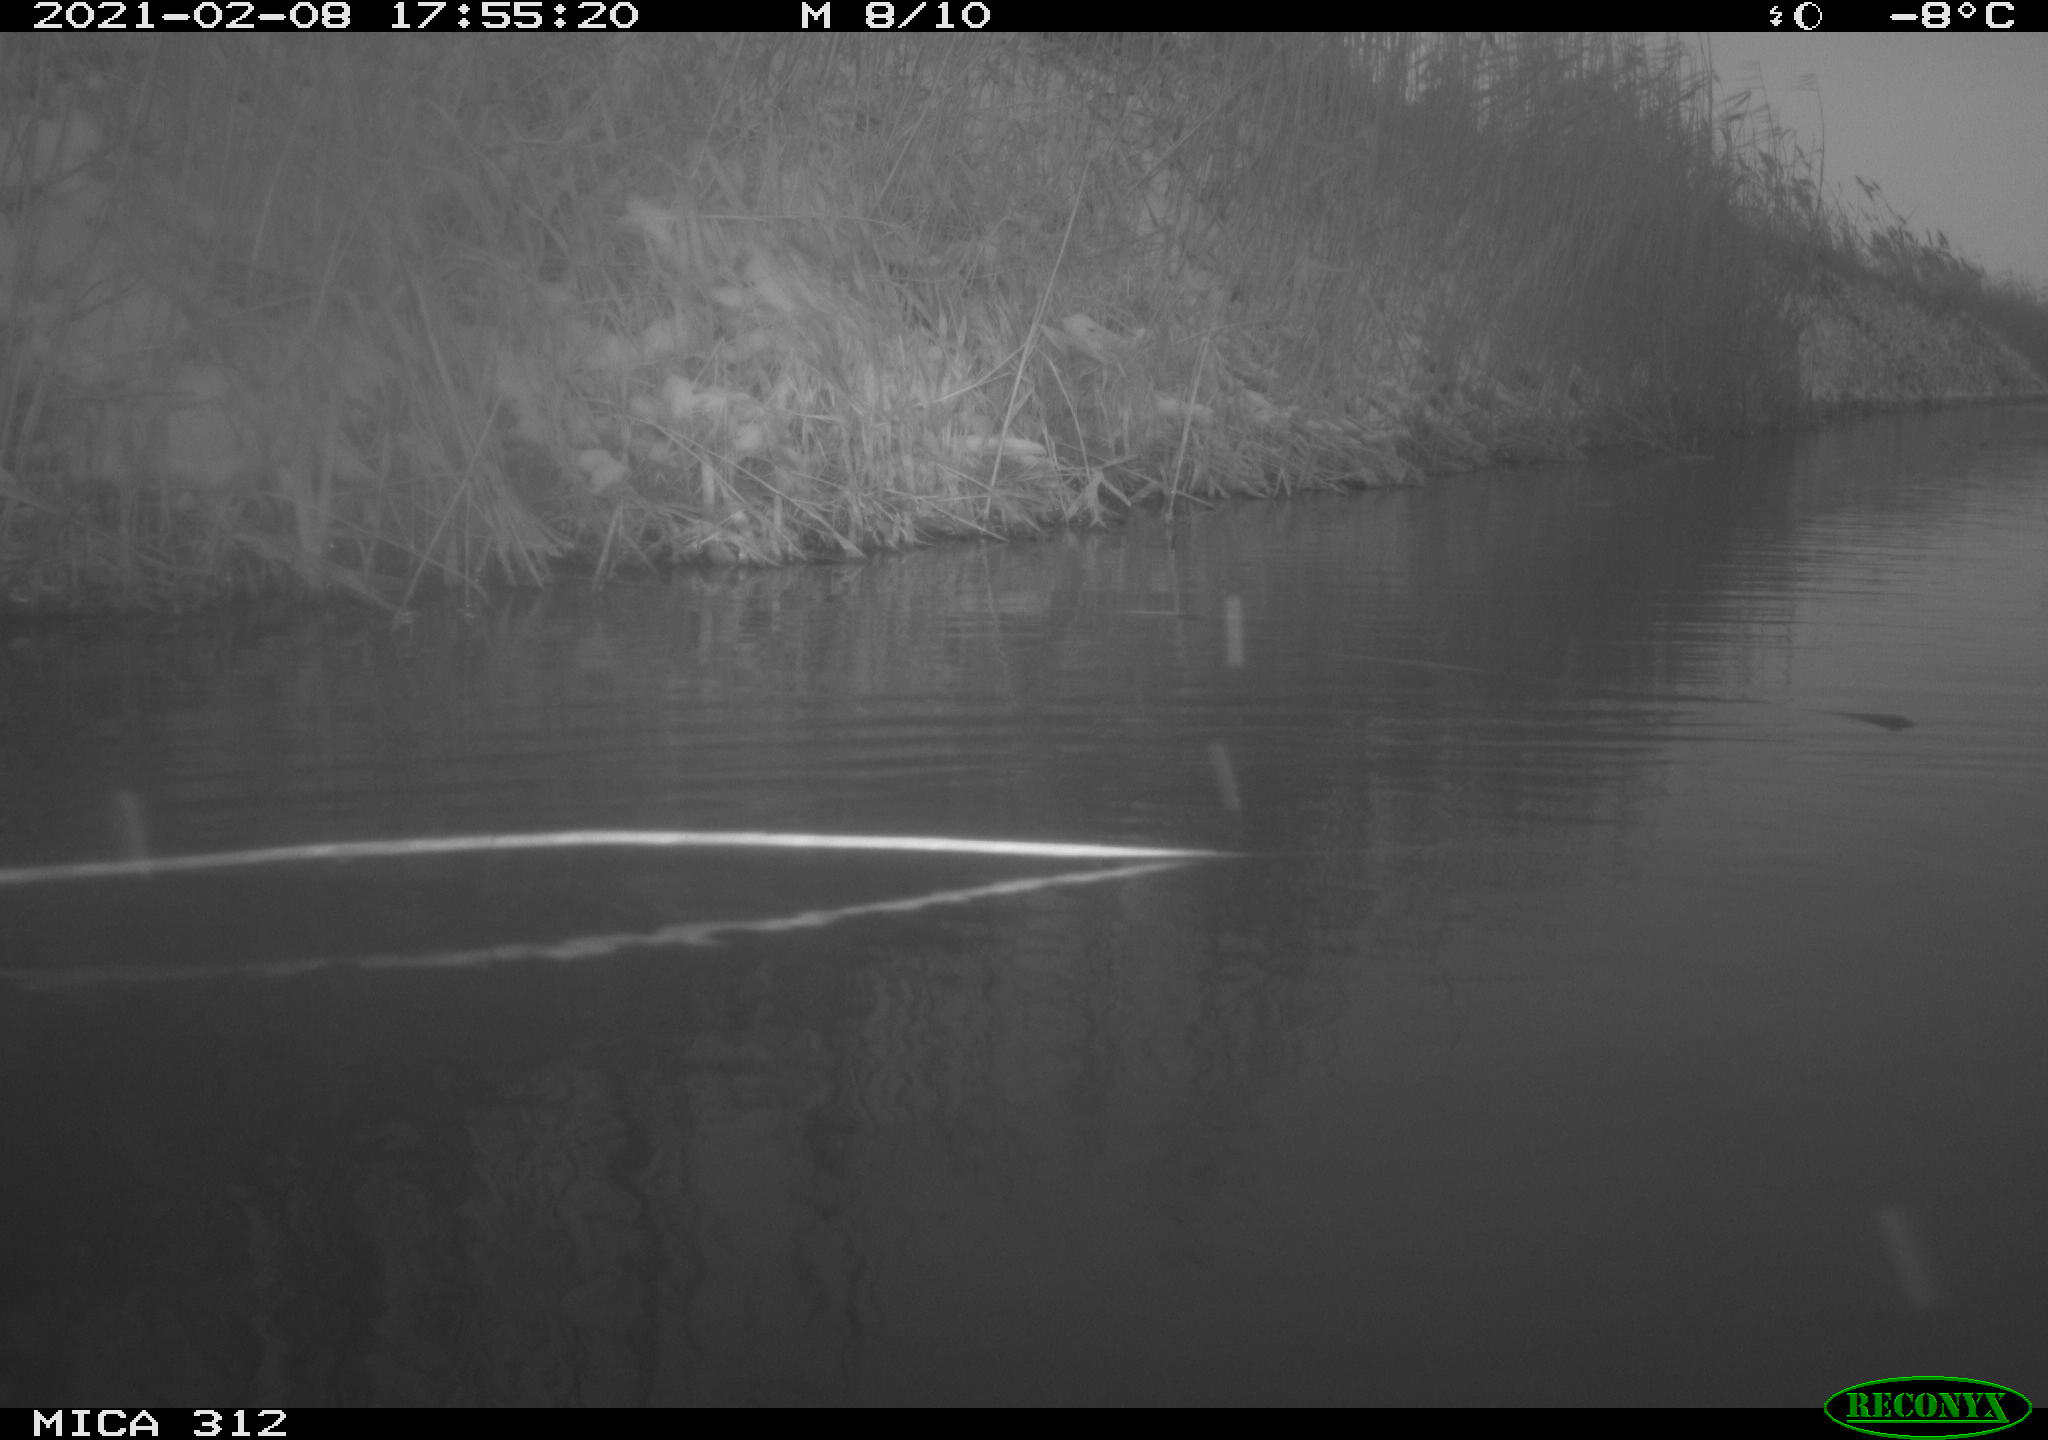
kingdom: Animalia
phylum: Chordata
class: Aves
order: Gruiformes
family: Rallidae
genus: Gallinula
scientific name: Gallinula chloropus
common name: Common moorhen
